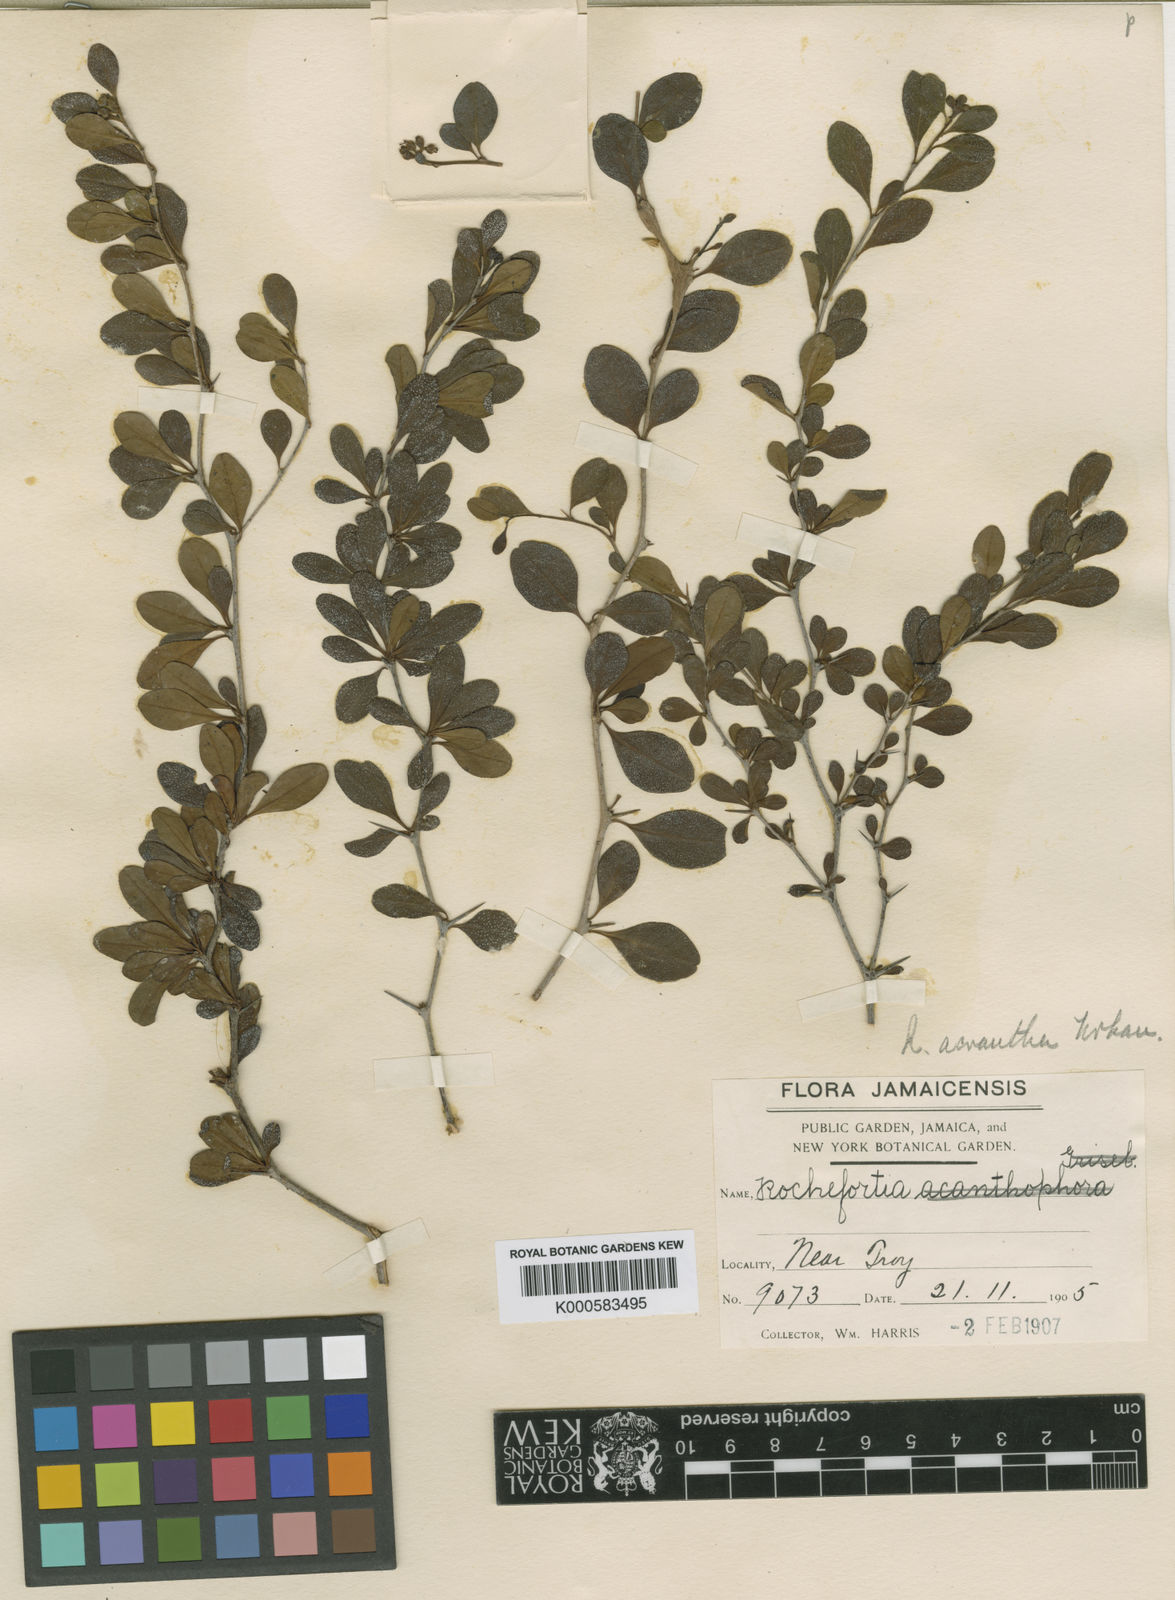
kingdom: Plantae
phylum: Tracheophyta
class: Magnoliopsida
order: Boraginales
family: Ehretiaceae
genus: Rochefortia
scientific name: Rochefortia acanthophora
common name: Greenheart ebony
